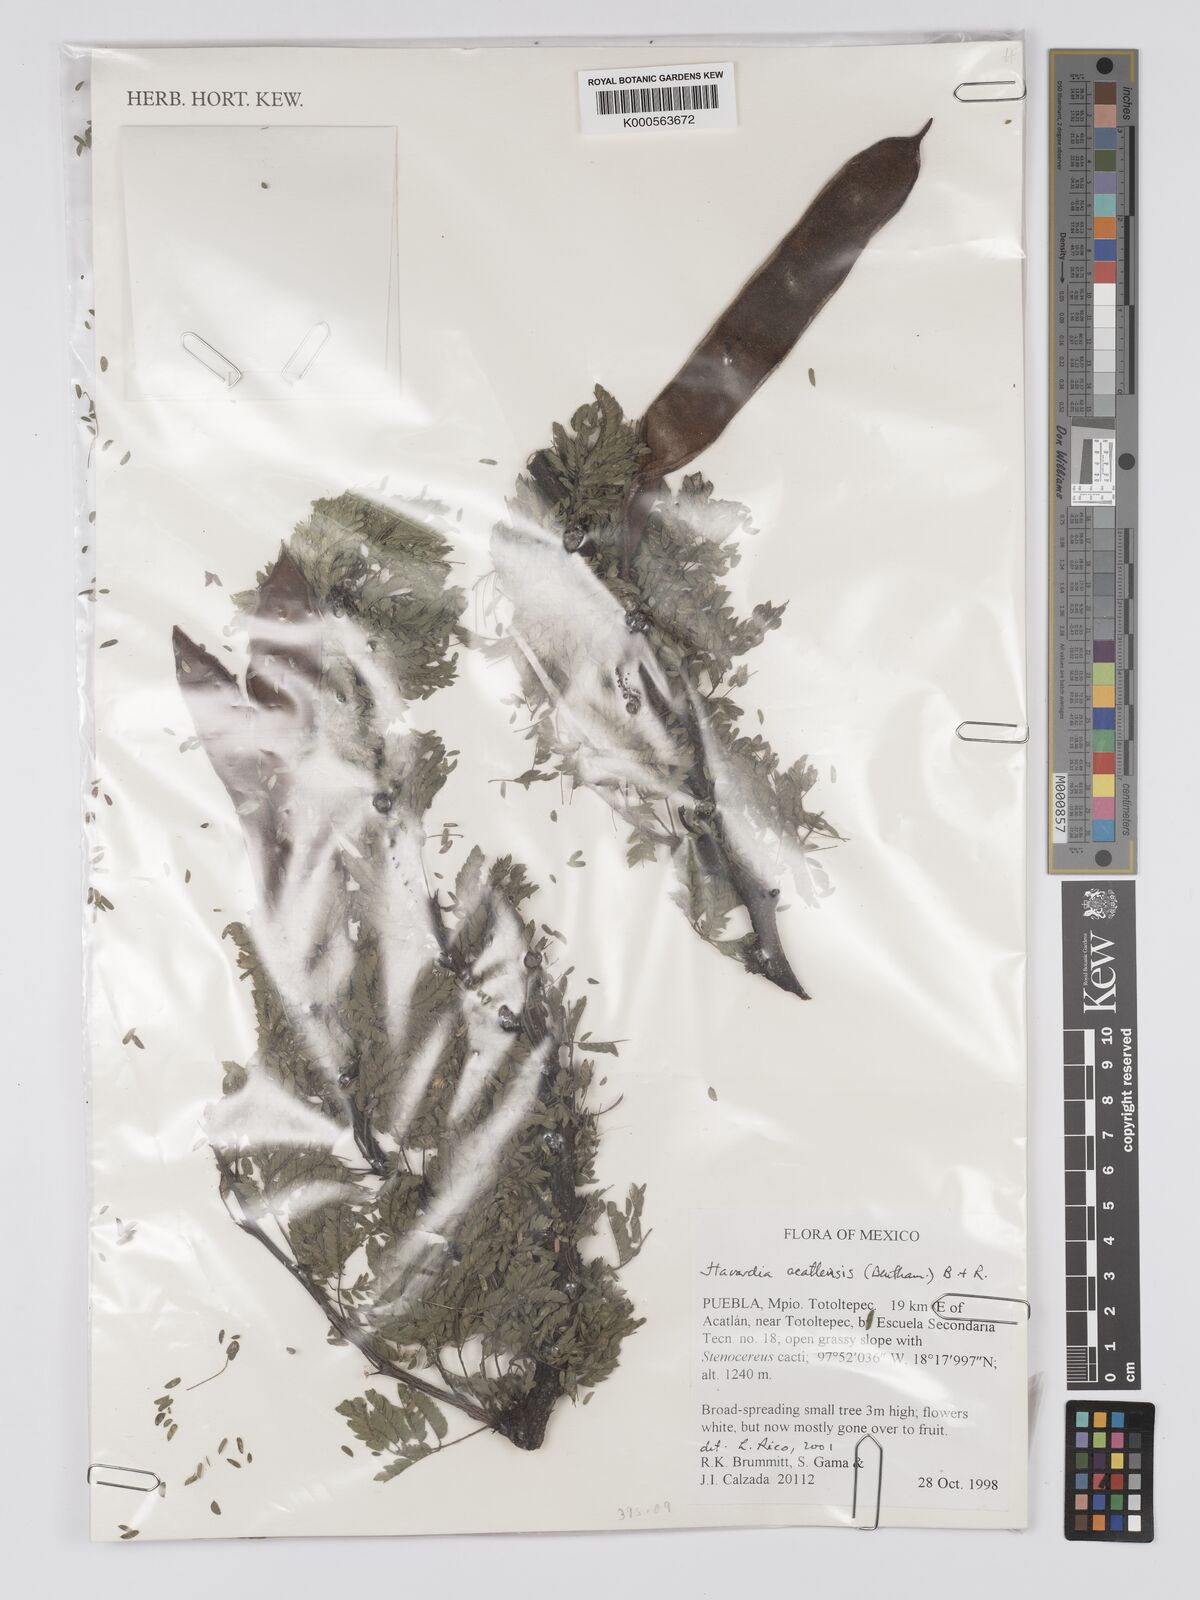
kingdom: Plantae
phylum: Tracheophyta
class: Magnoliopsida
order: Fabales
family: Fabaceae
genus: Havardia
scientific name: Havardia acatlensis
